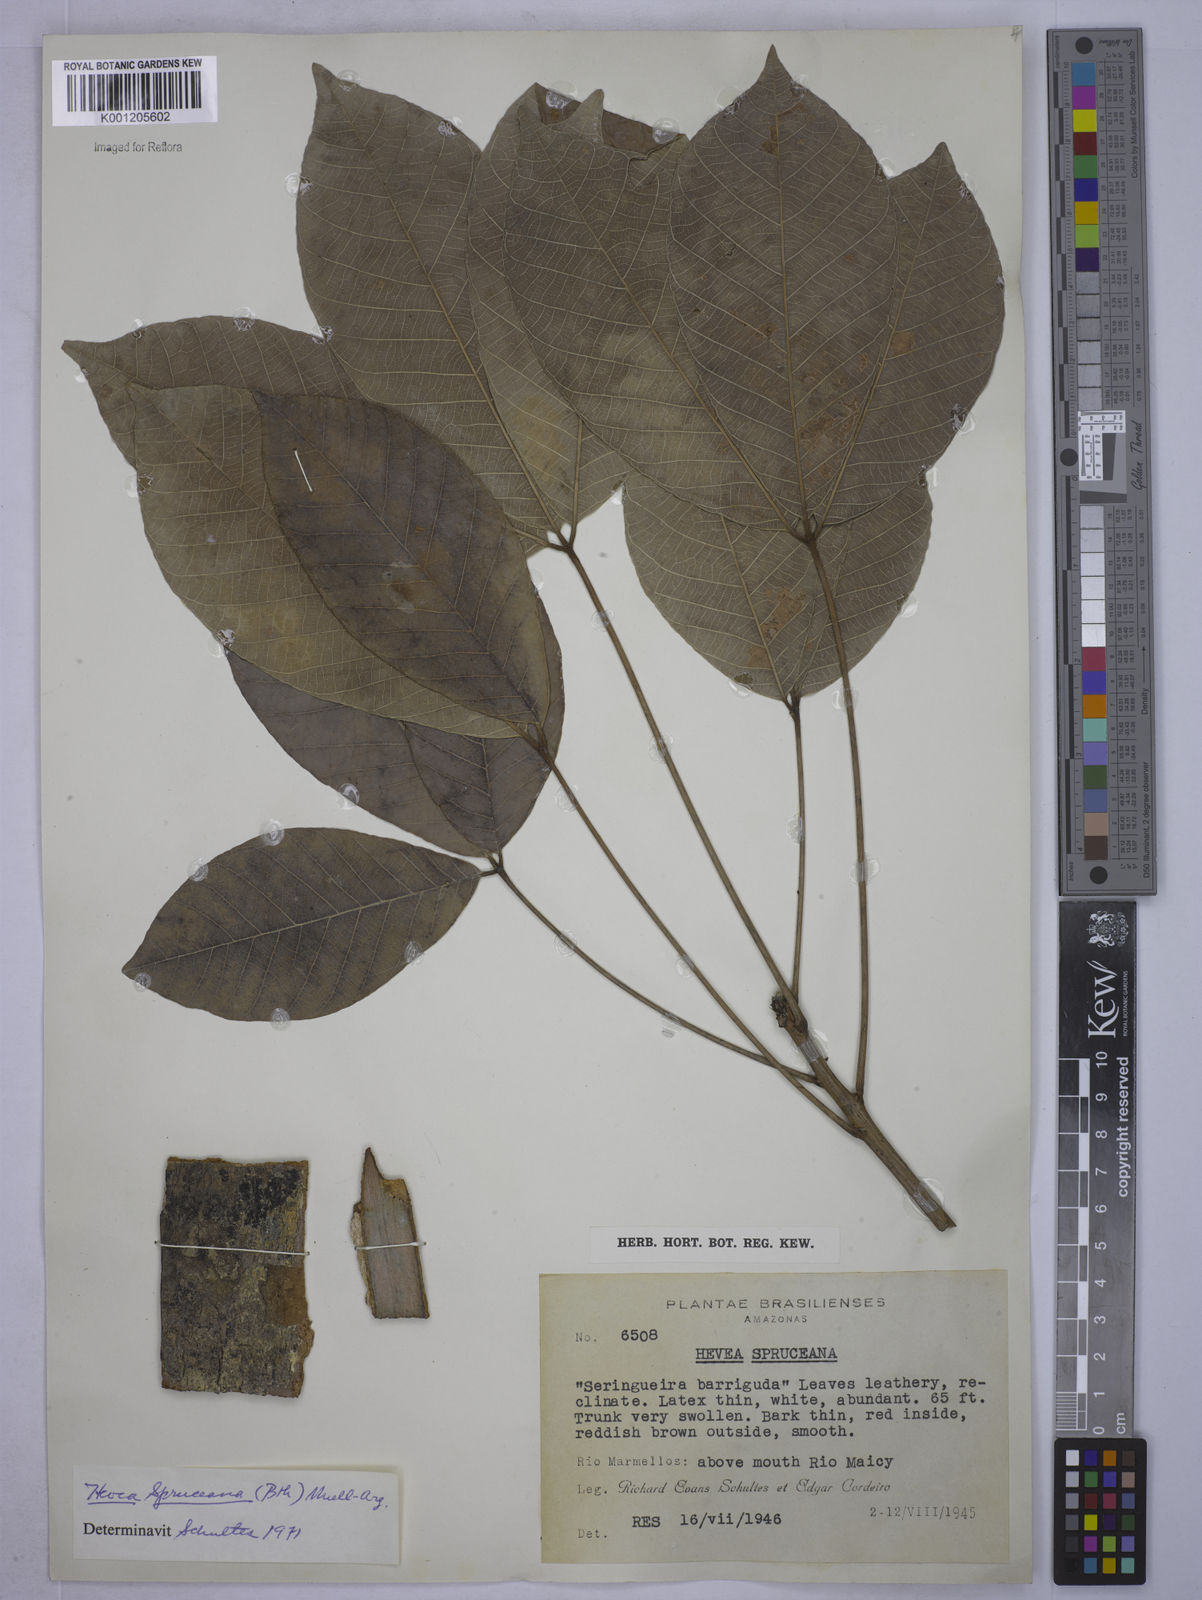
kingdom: Plantae
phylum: Tracheophyta
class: Magnoliopsida
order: Malpighiales
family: Euphorbiaceae
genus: Hevea
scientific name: Hevea
